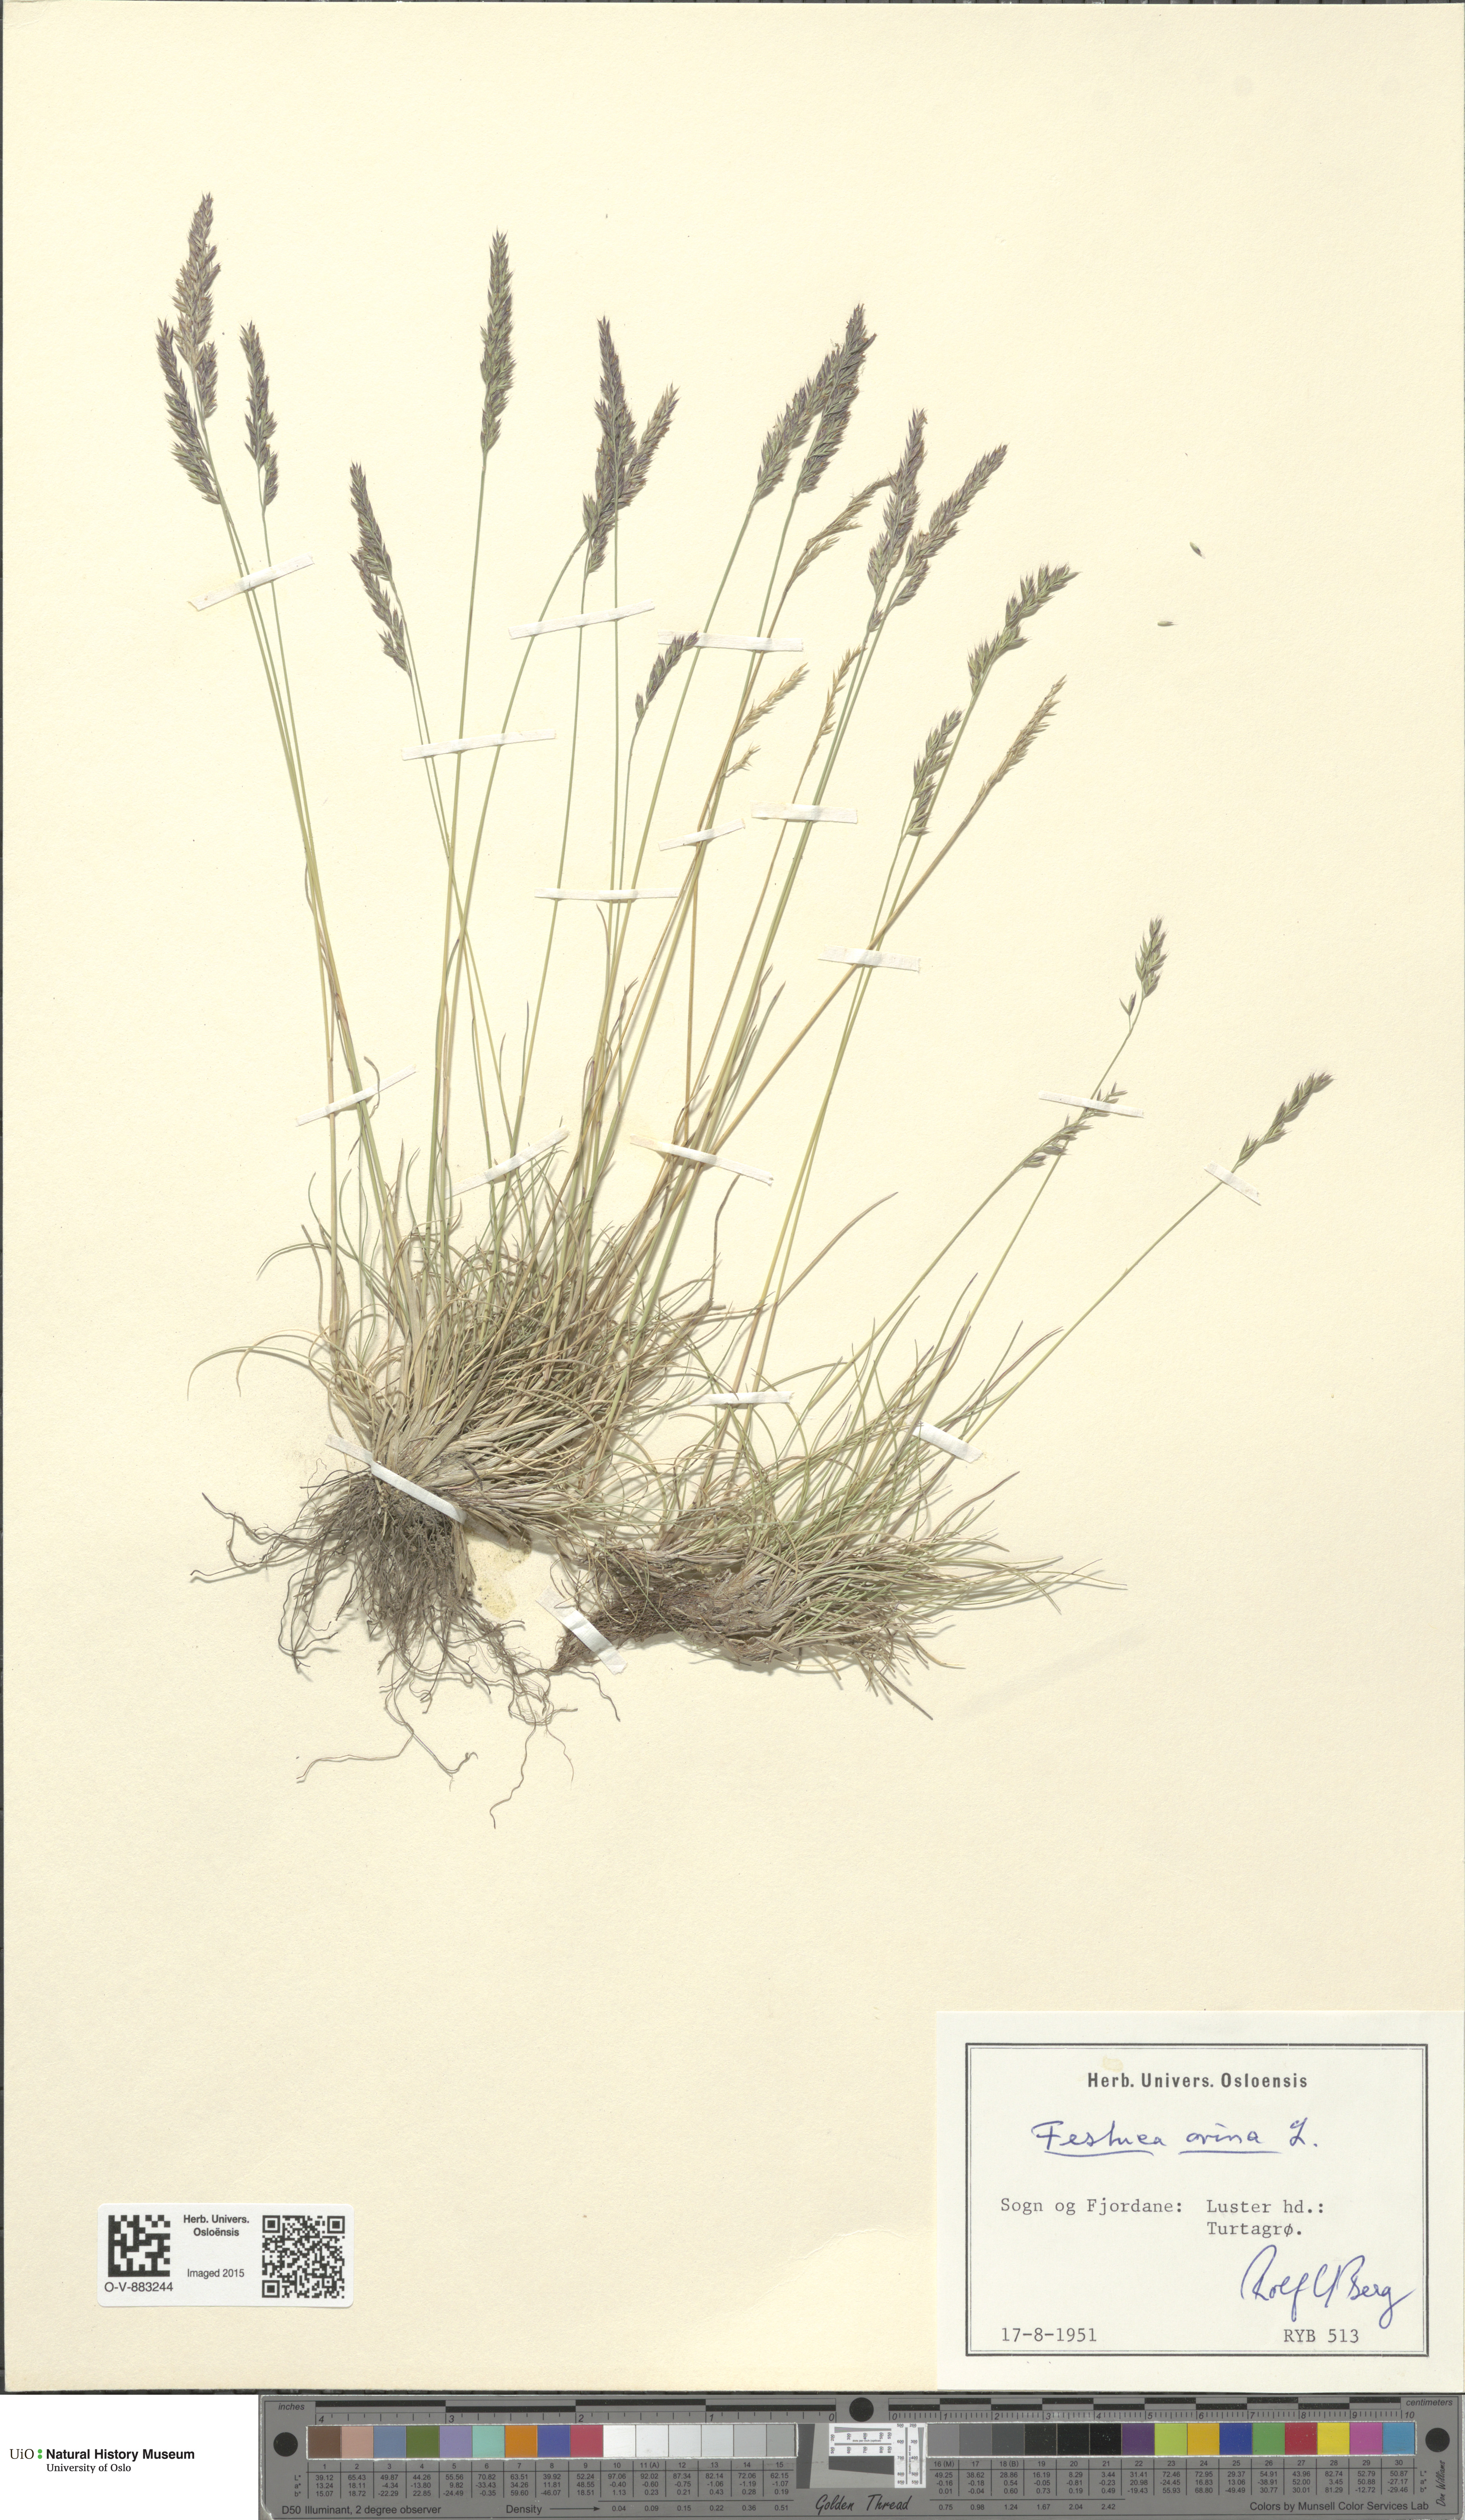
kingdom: Plantae
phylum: Tracheophyta
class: Liliopsida
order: Poales
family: Poaceae
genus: Festuca
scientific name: Festuca ovina
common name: Sheep fescue
